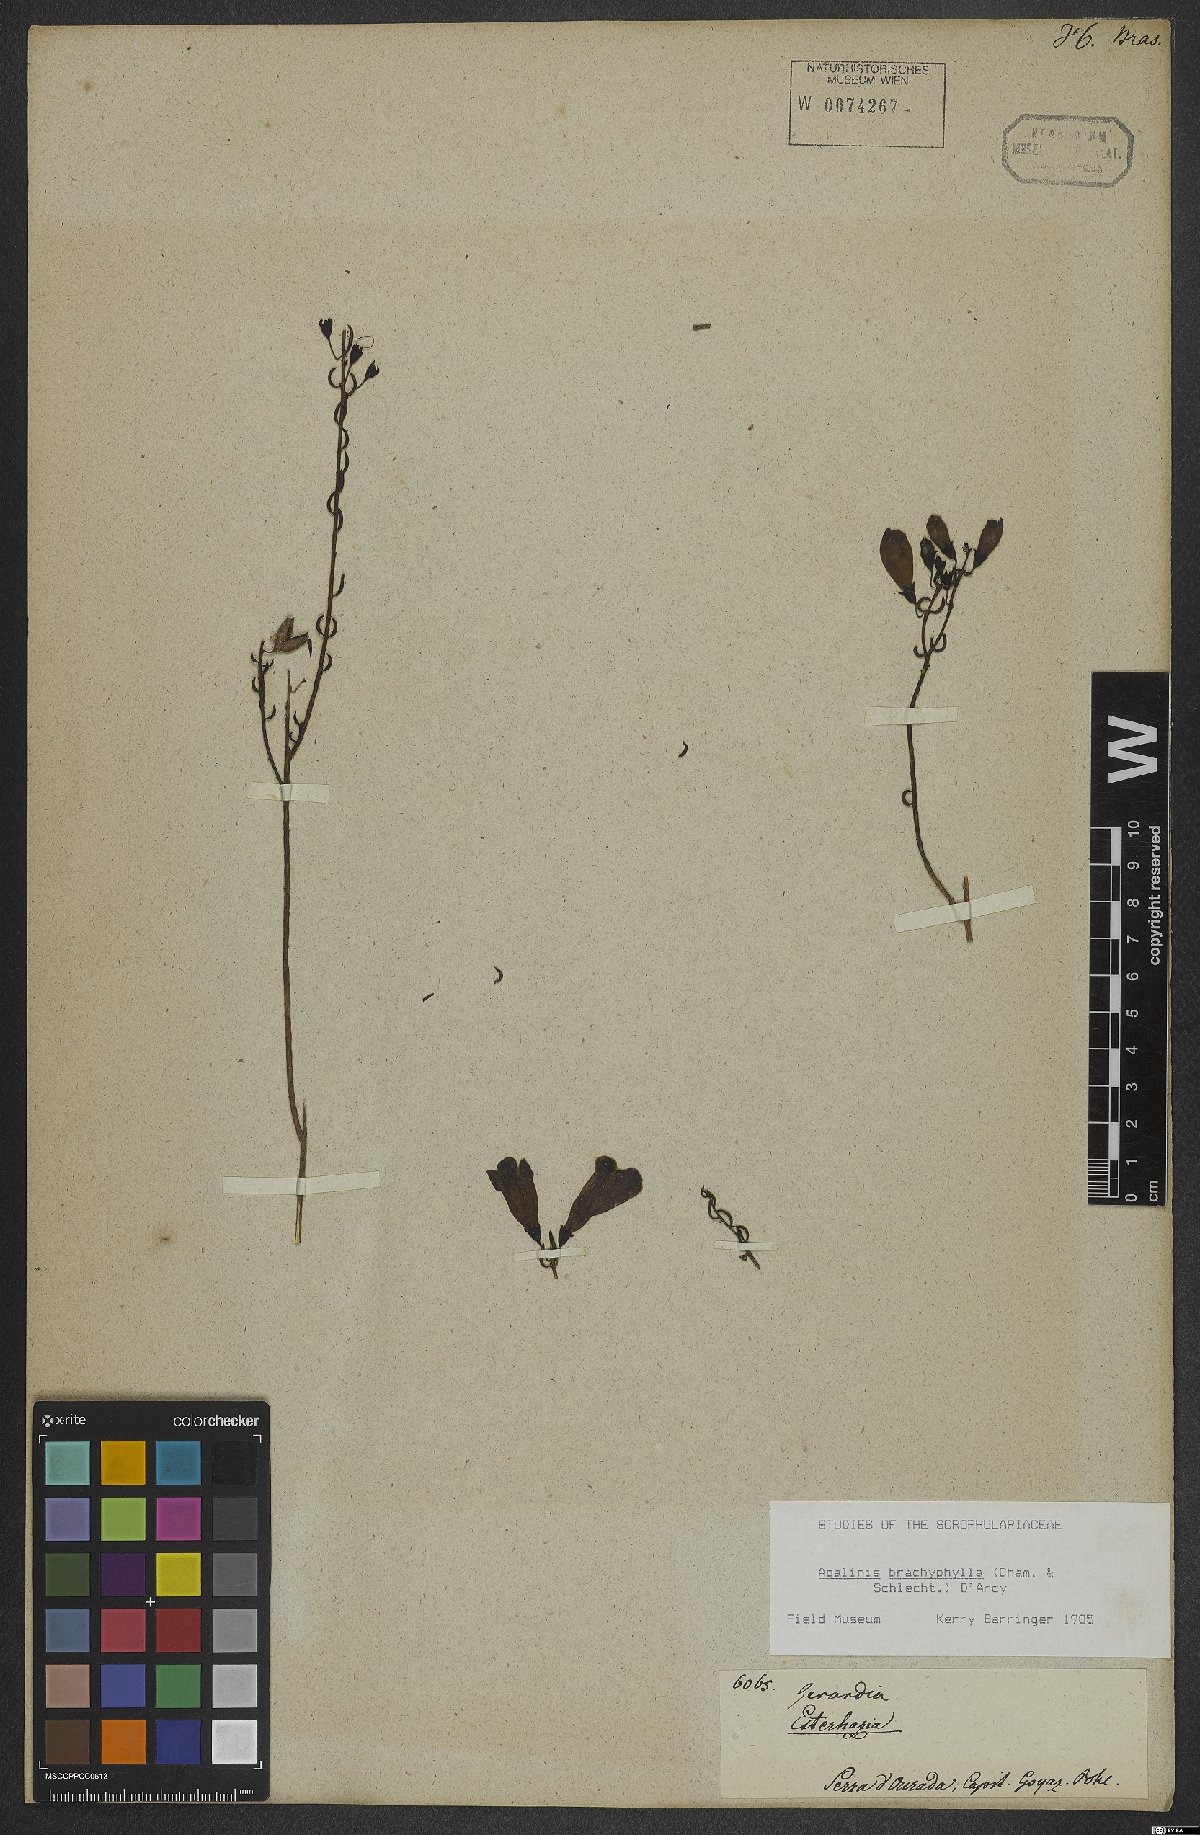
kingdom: Plantae
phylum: Tracheophyta
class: Magnoliopsida
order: Lamiales
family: Scrophulariaceae
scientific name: Scrophulariaceae
